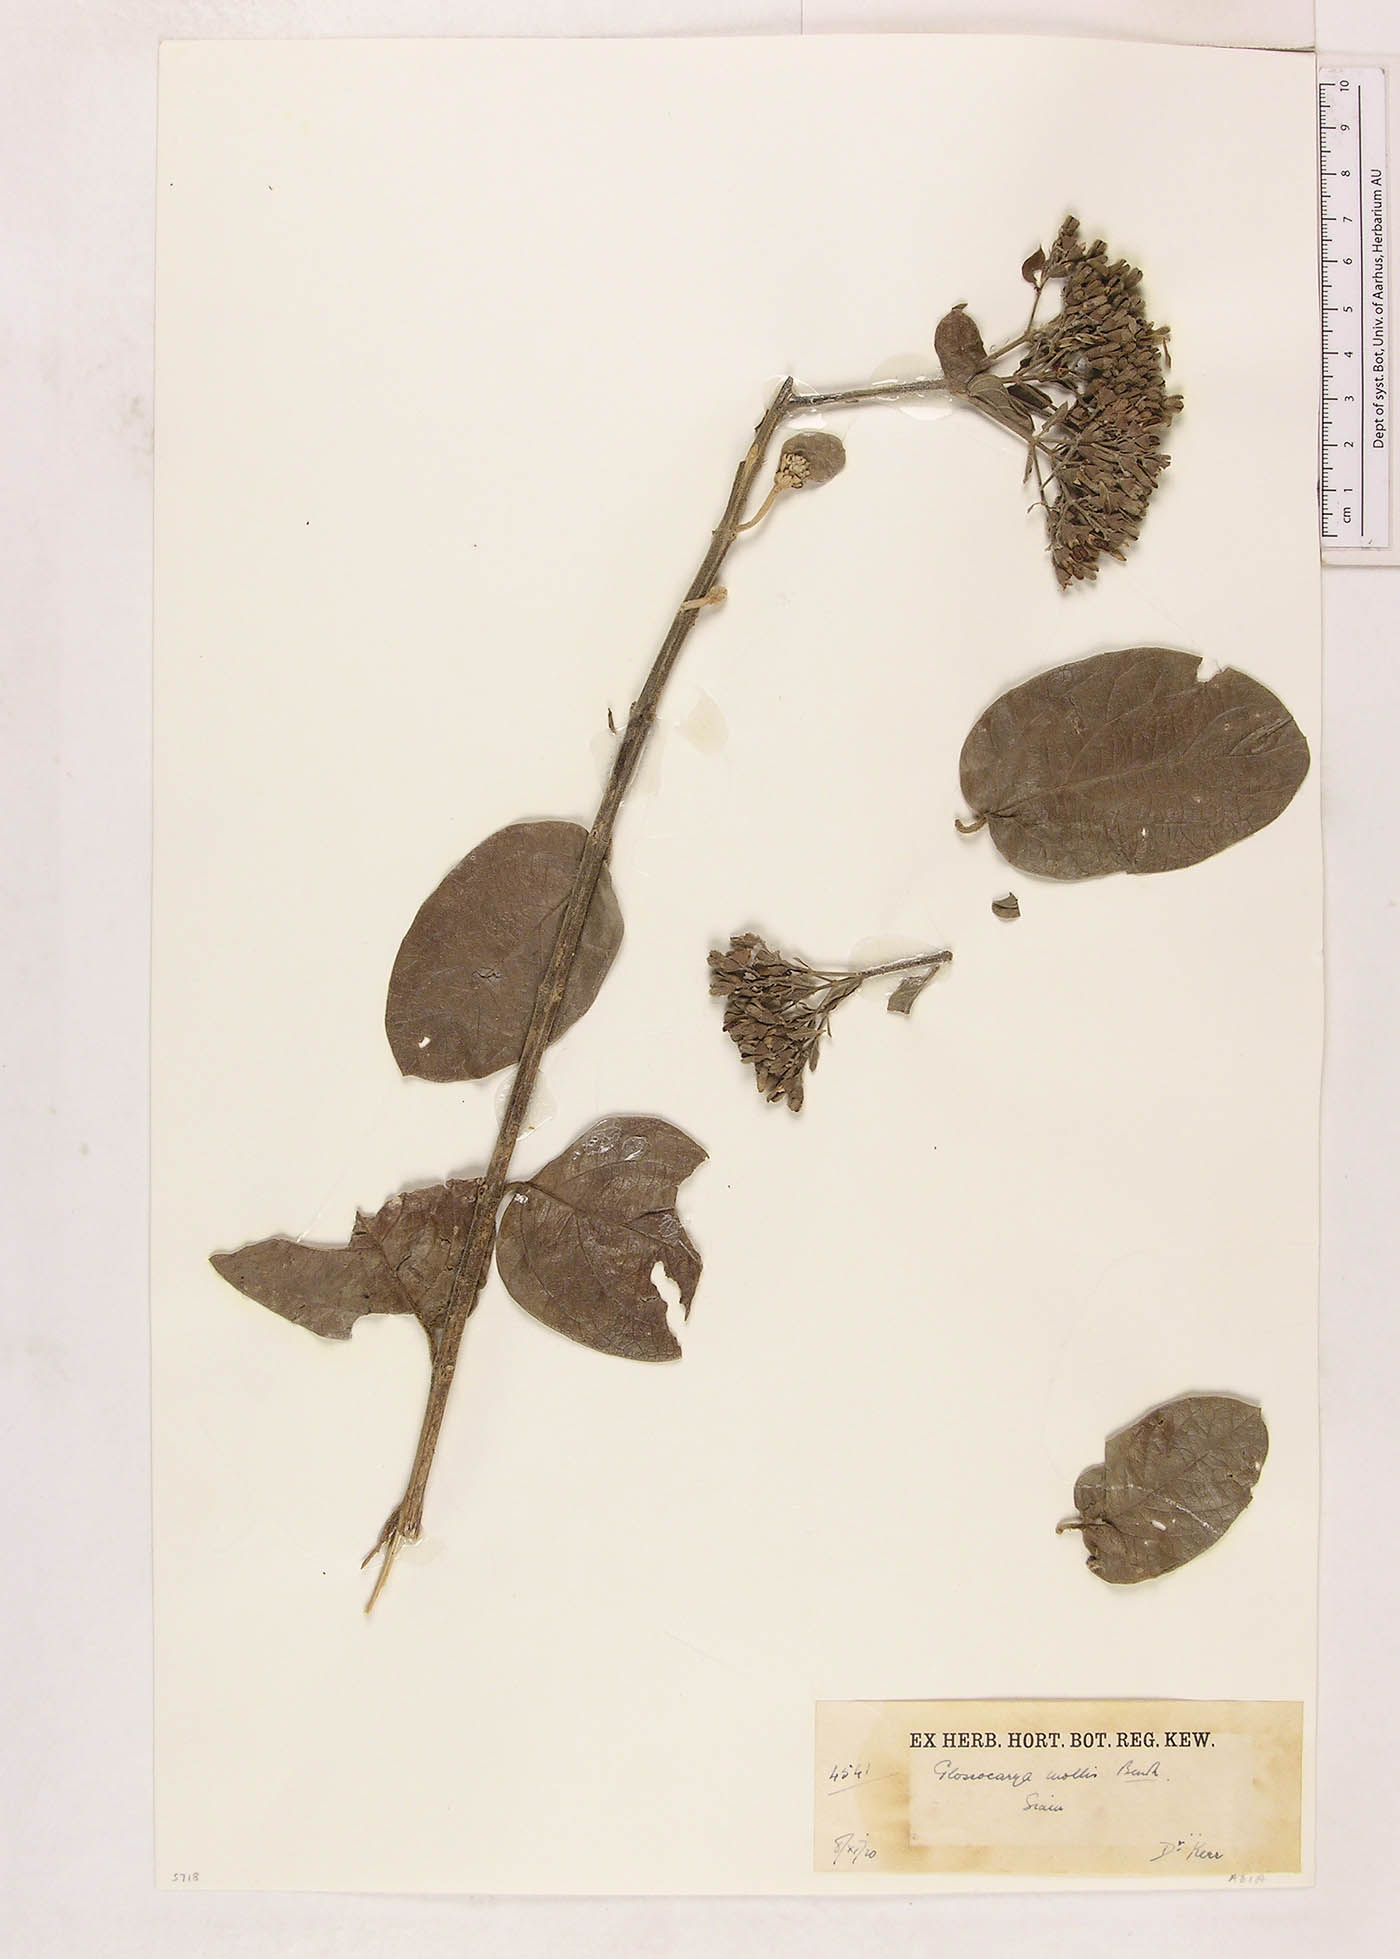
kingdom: Plantae
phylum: Tracheophyta
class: Magnoliopsida
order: Lamiales
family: Lamiaceae
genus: Glossocarya
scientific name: Glossocarya mollis
